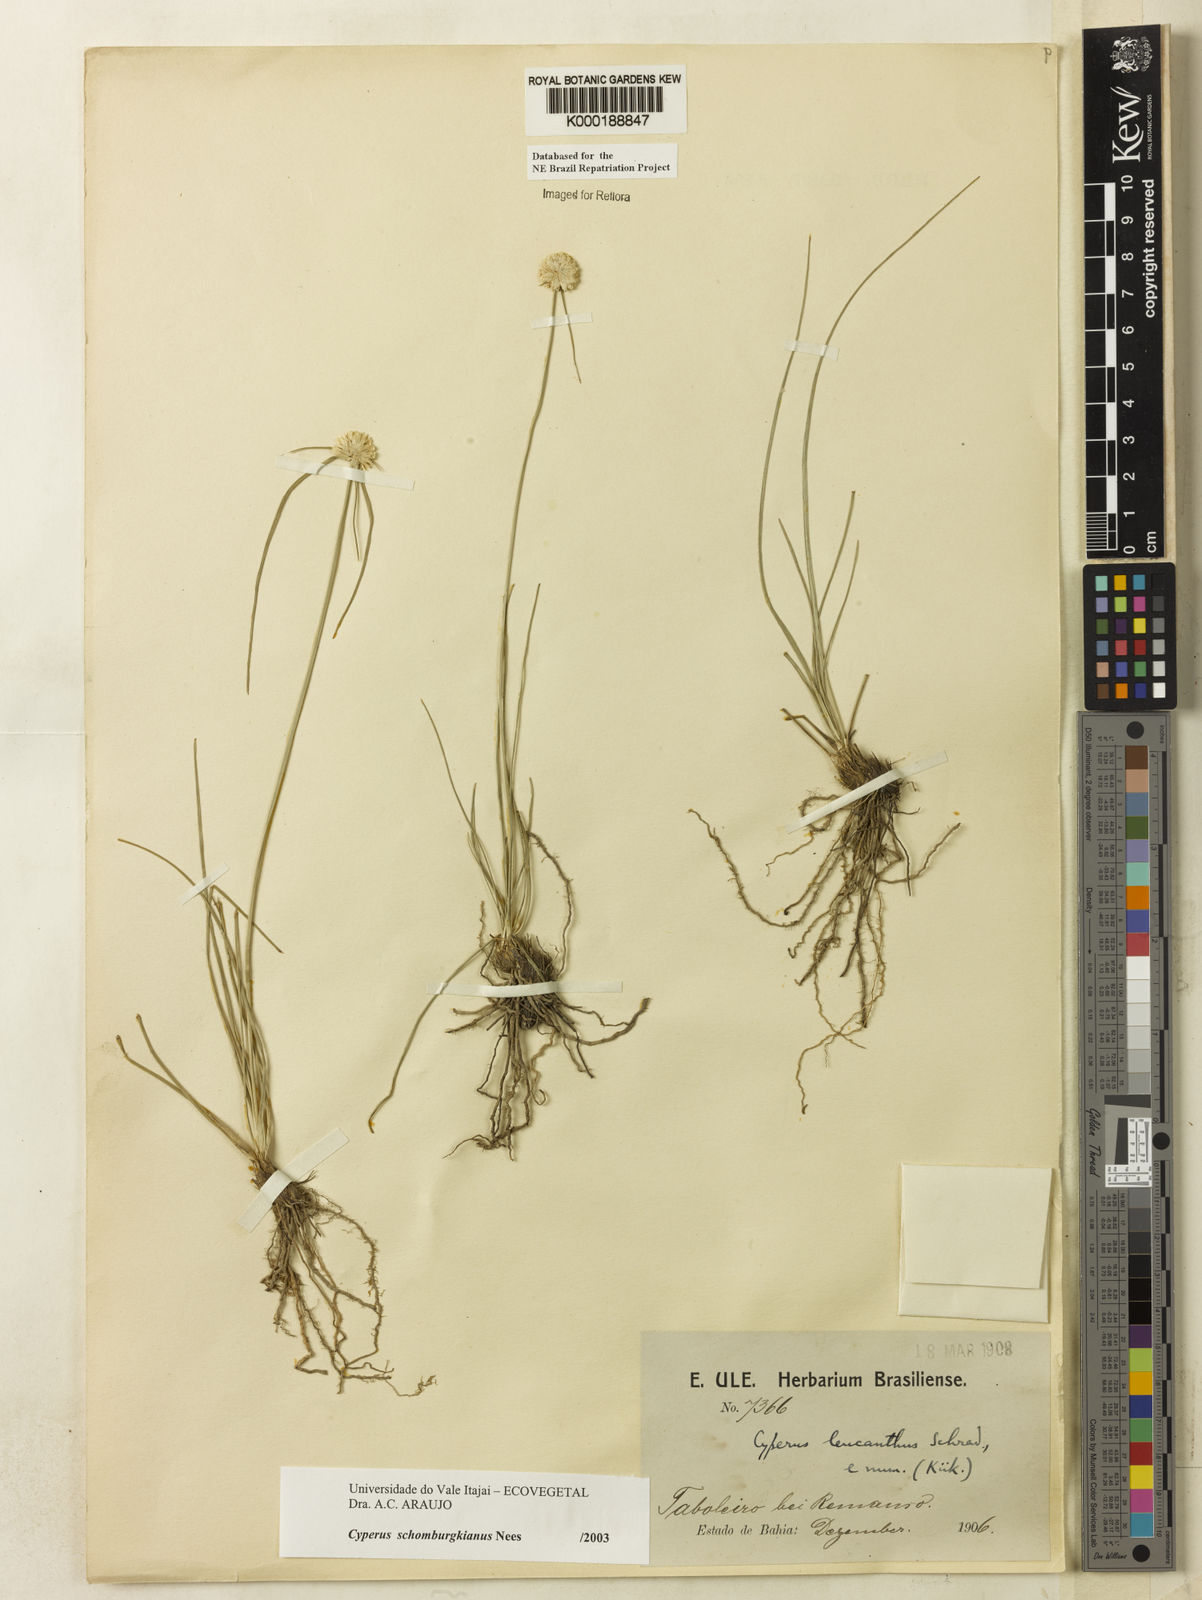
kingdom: Plantae
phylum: Tracheophyta
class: Liliopsida
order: Poales
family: Cyperaceae
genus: Cyperus
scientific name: Cyperus schomburgkianus
